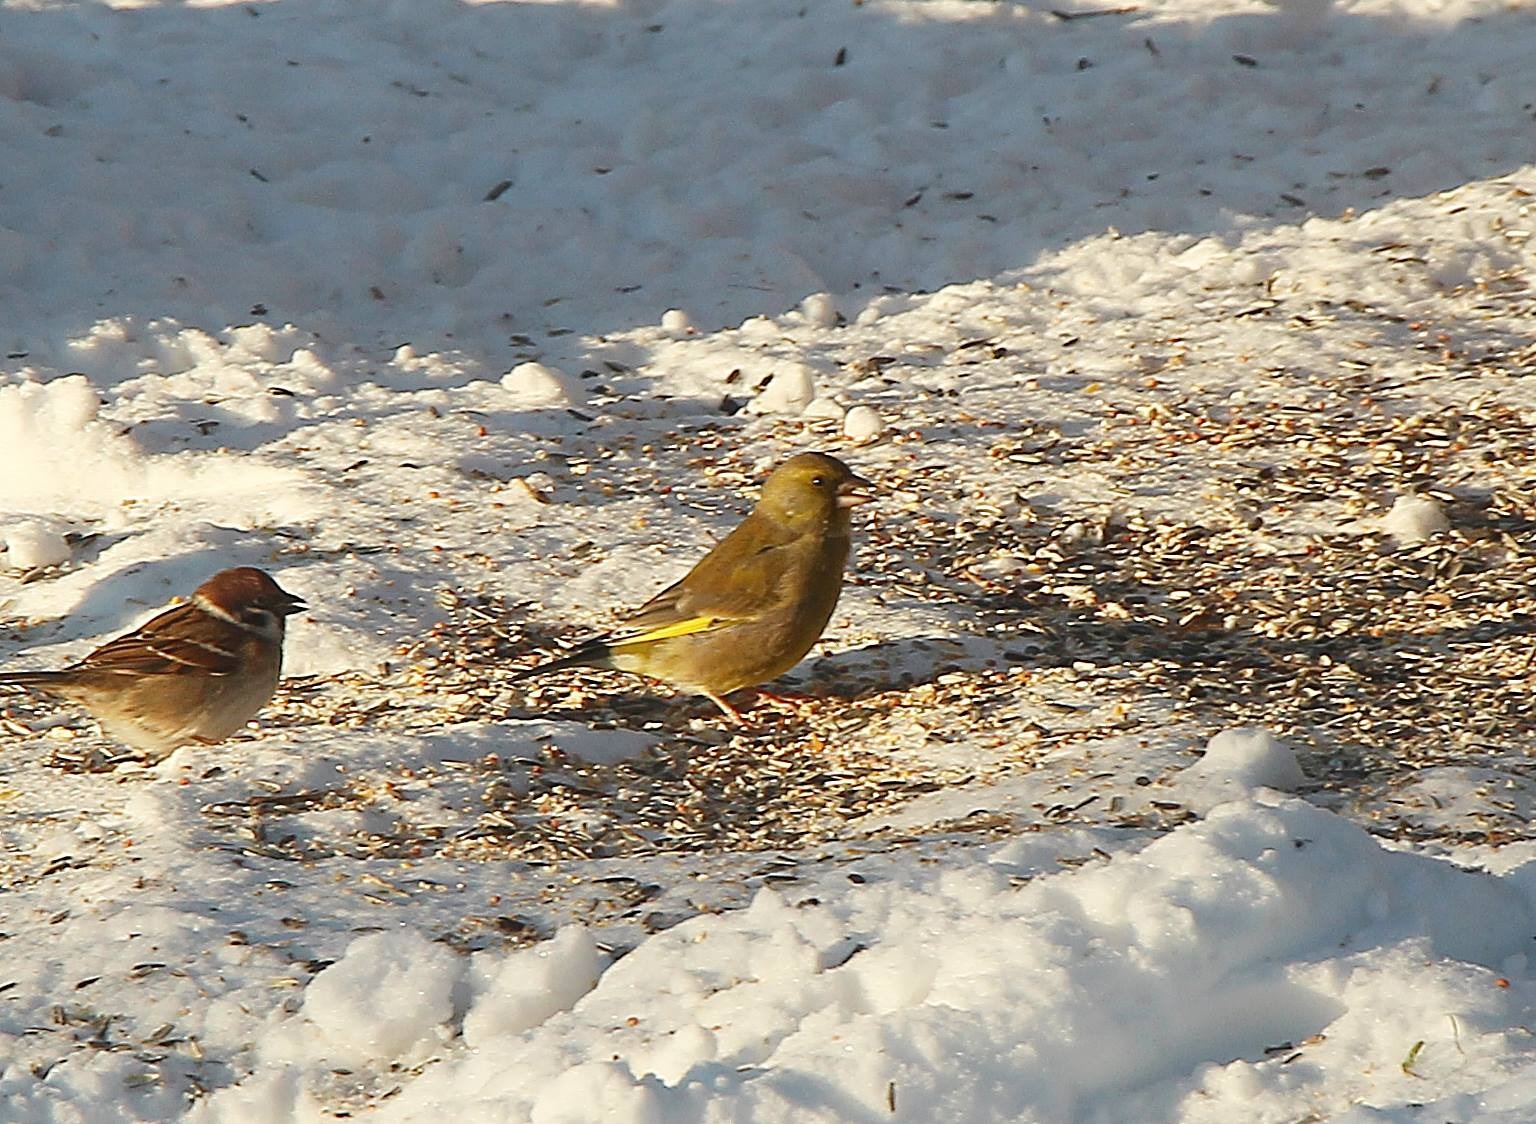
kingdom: Plantae
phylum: Tracheophyta
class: Liliopsida
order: Poales
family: Poaceae
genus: Chloris
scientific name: Chloris chloris
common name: Grønirisk
